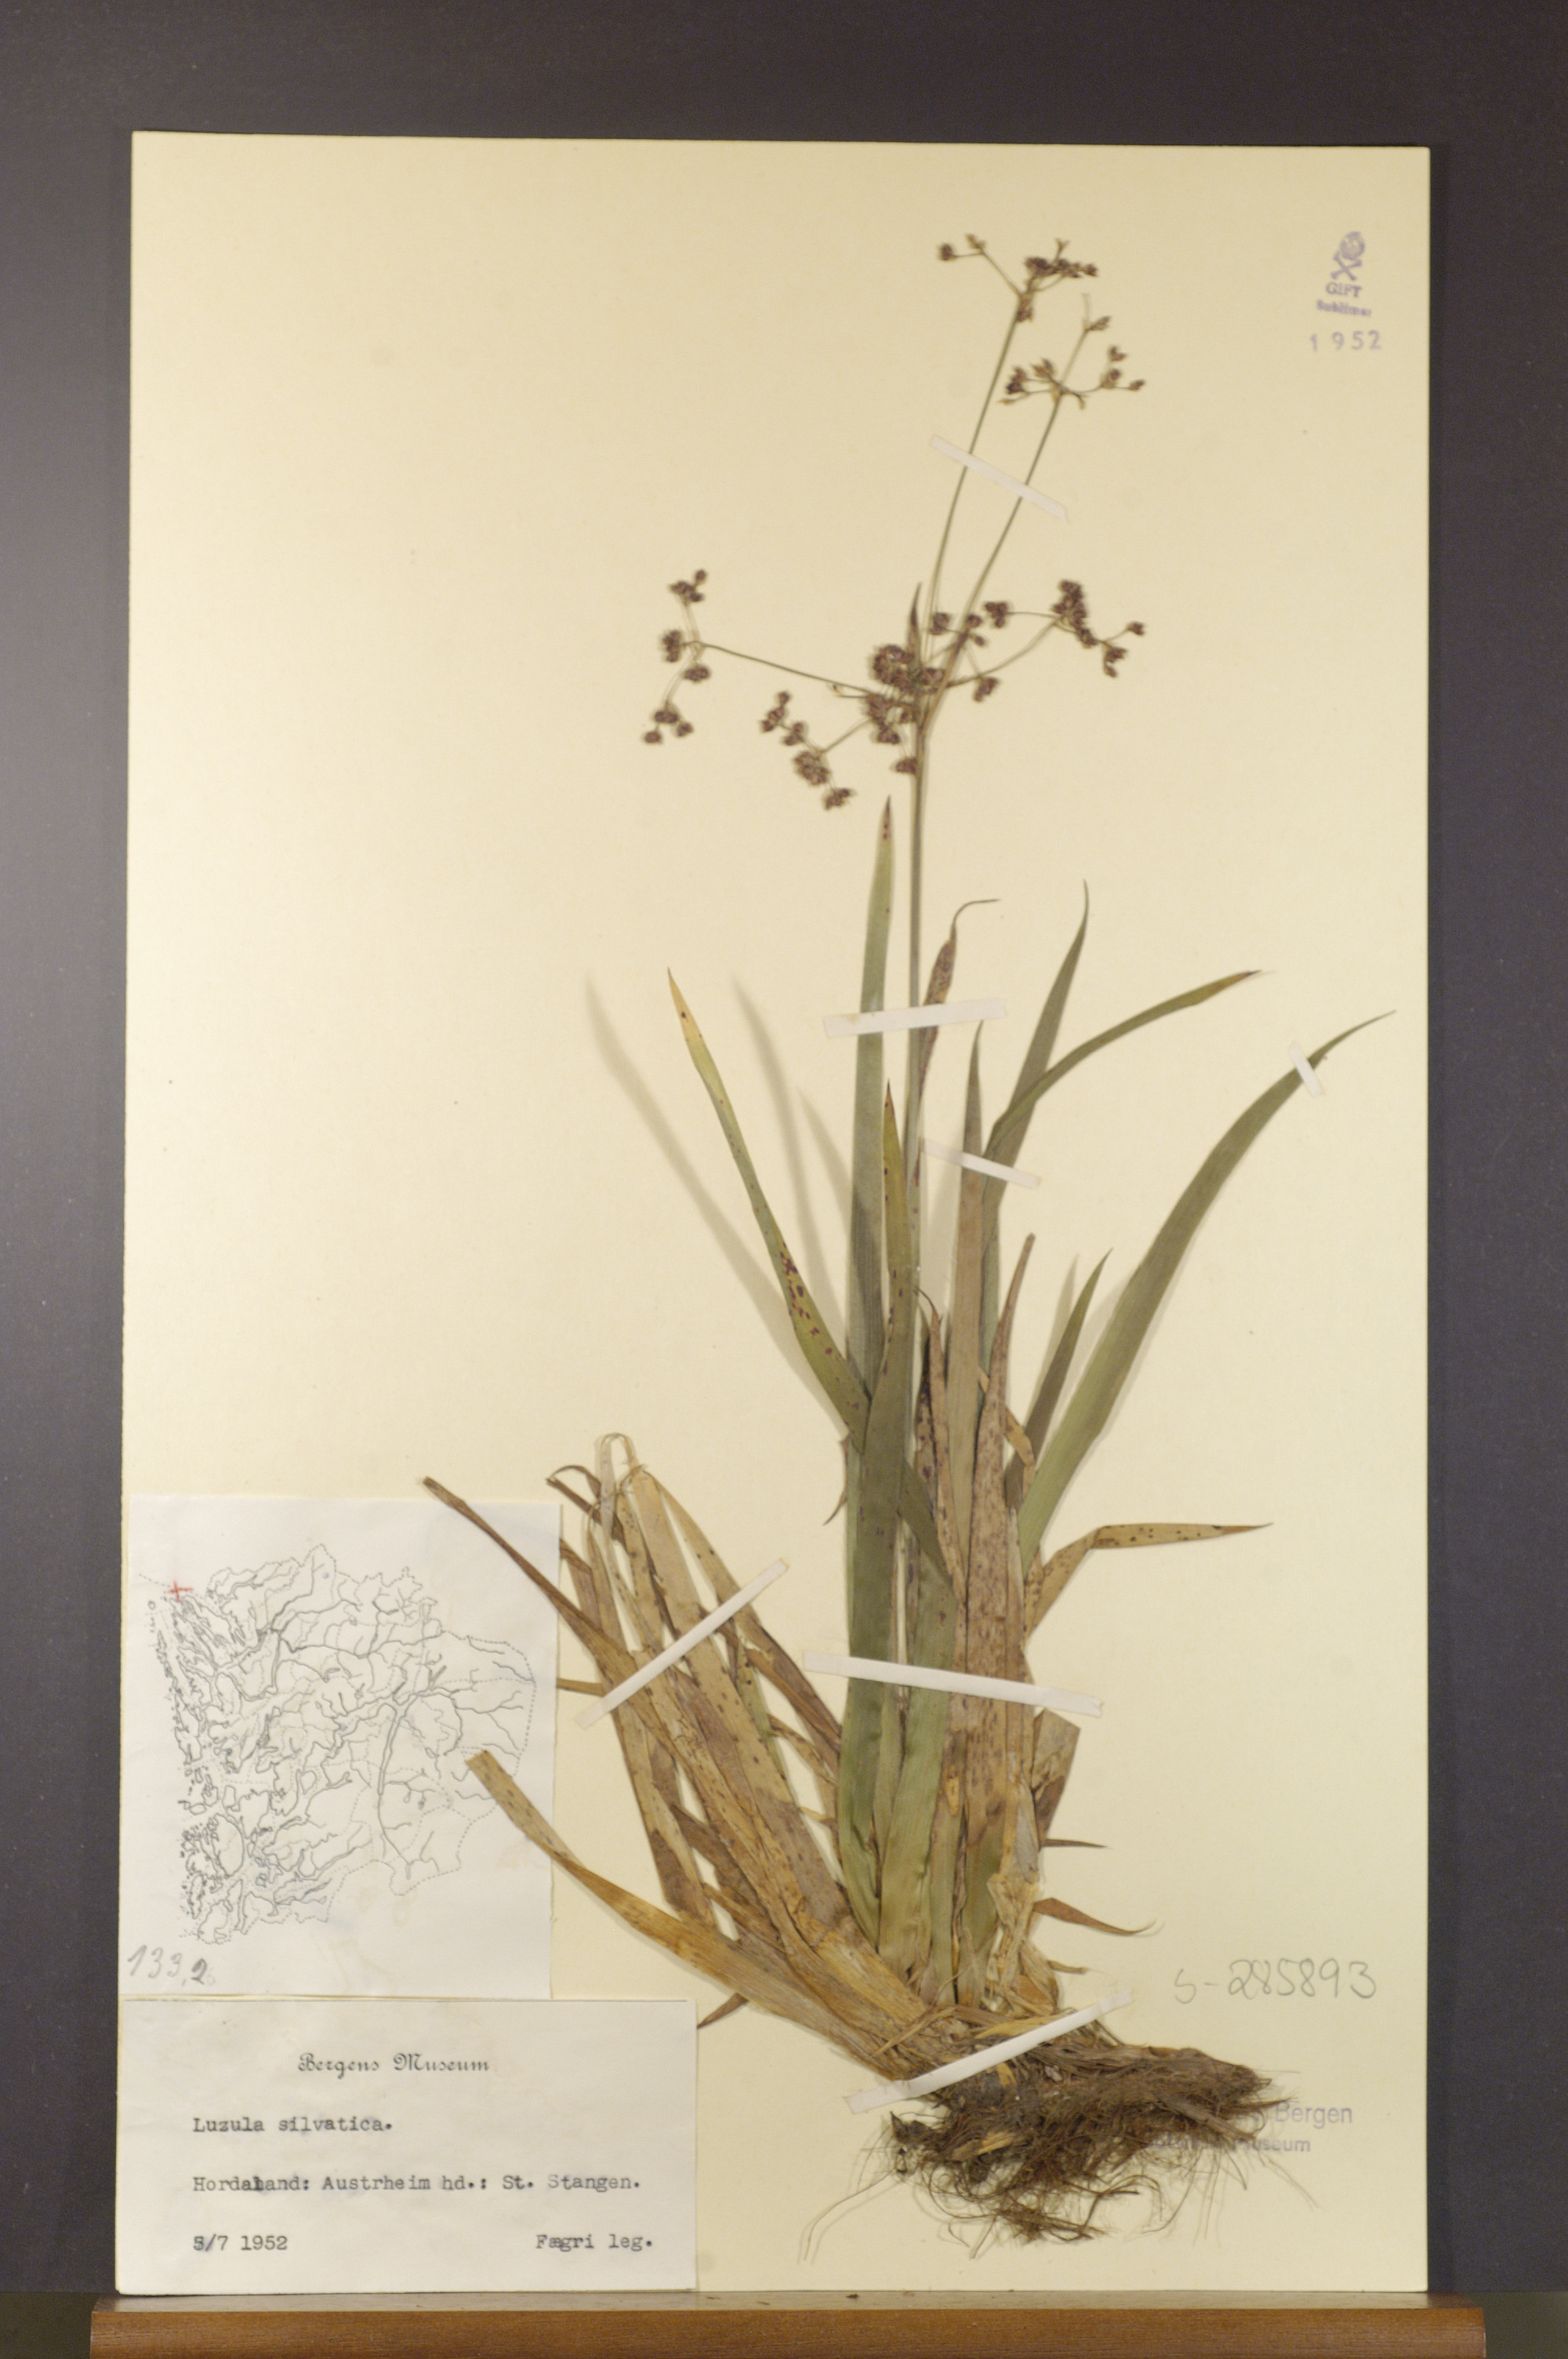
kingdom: Plantae
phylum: Tracheophyta
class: Liliopsida
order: Poales
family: Juncaceae
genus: Luzula
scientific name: Luzula sylvatica
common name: Great wood-rush
